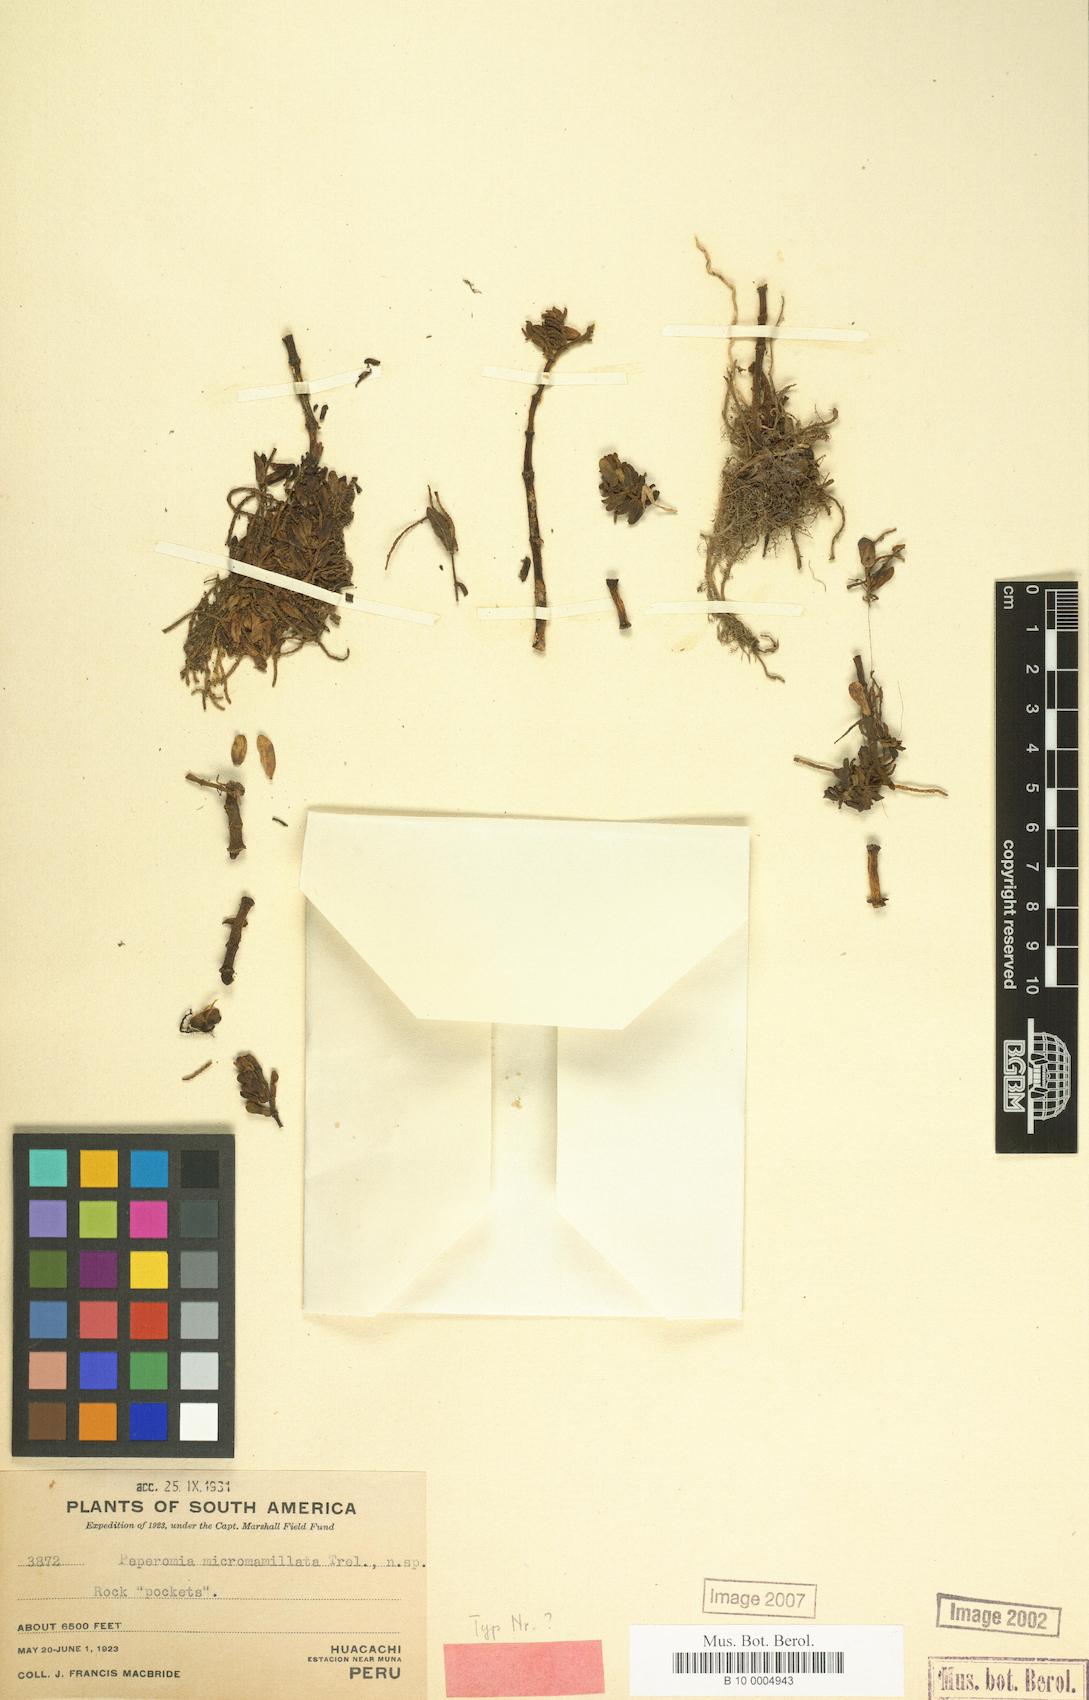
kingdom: Plantae
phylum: Tracheophyta
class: Magnoliopsida
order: Piperales
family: Piperaceae
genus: Peperomia
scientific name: Peperomia micromamillata
